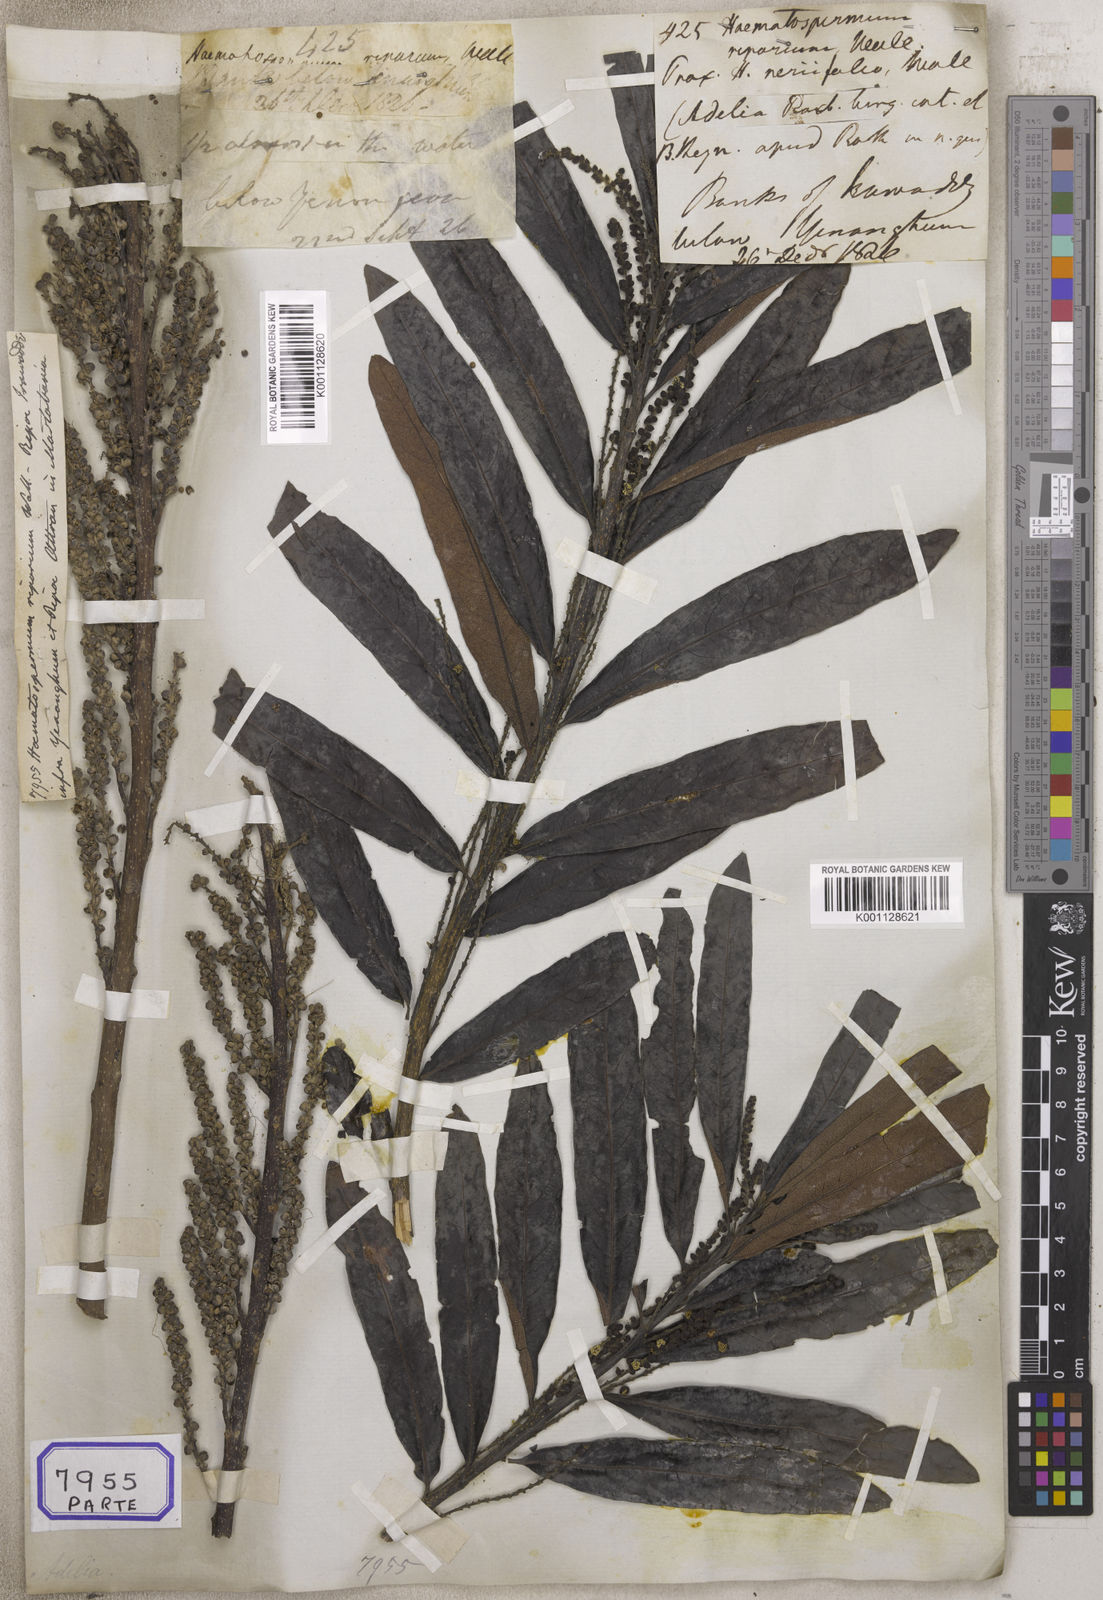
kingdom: Plantae
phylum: Tracheophyta
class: Magnoliopsida
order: Malpighiales
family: Euphorbiaceae
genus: Homonoia
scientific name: Homonoia
